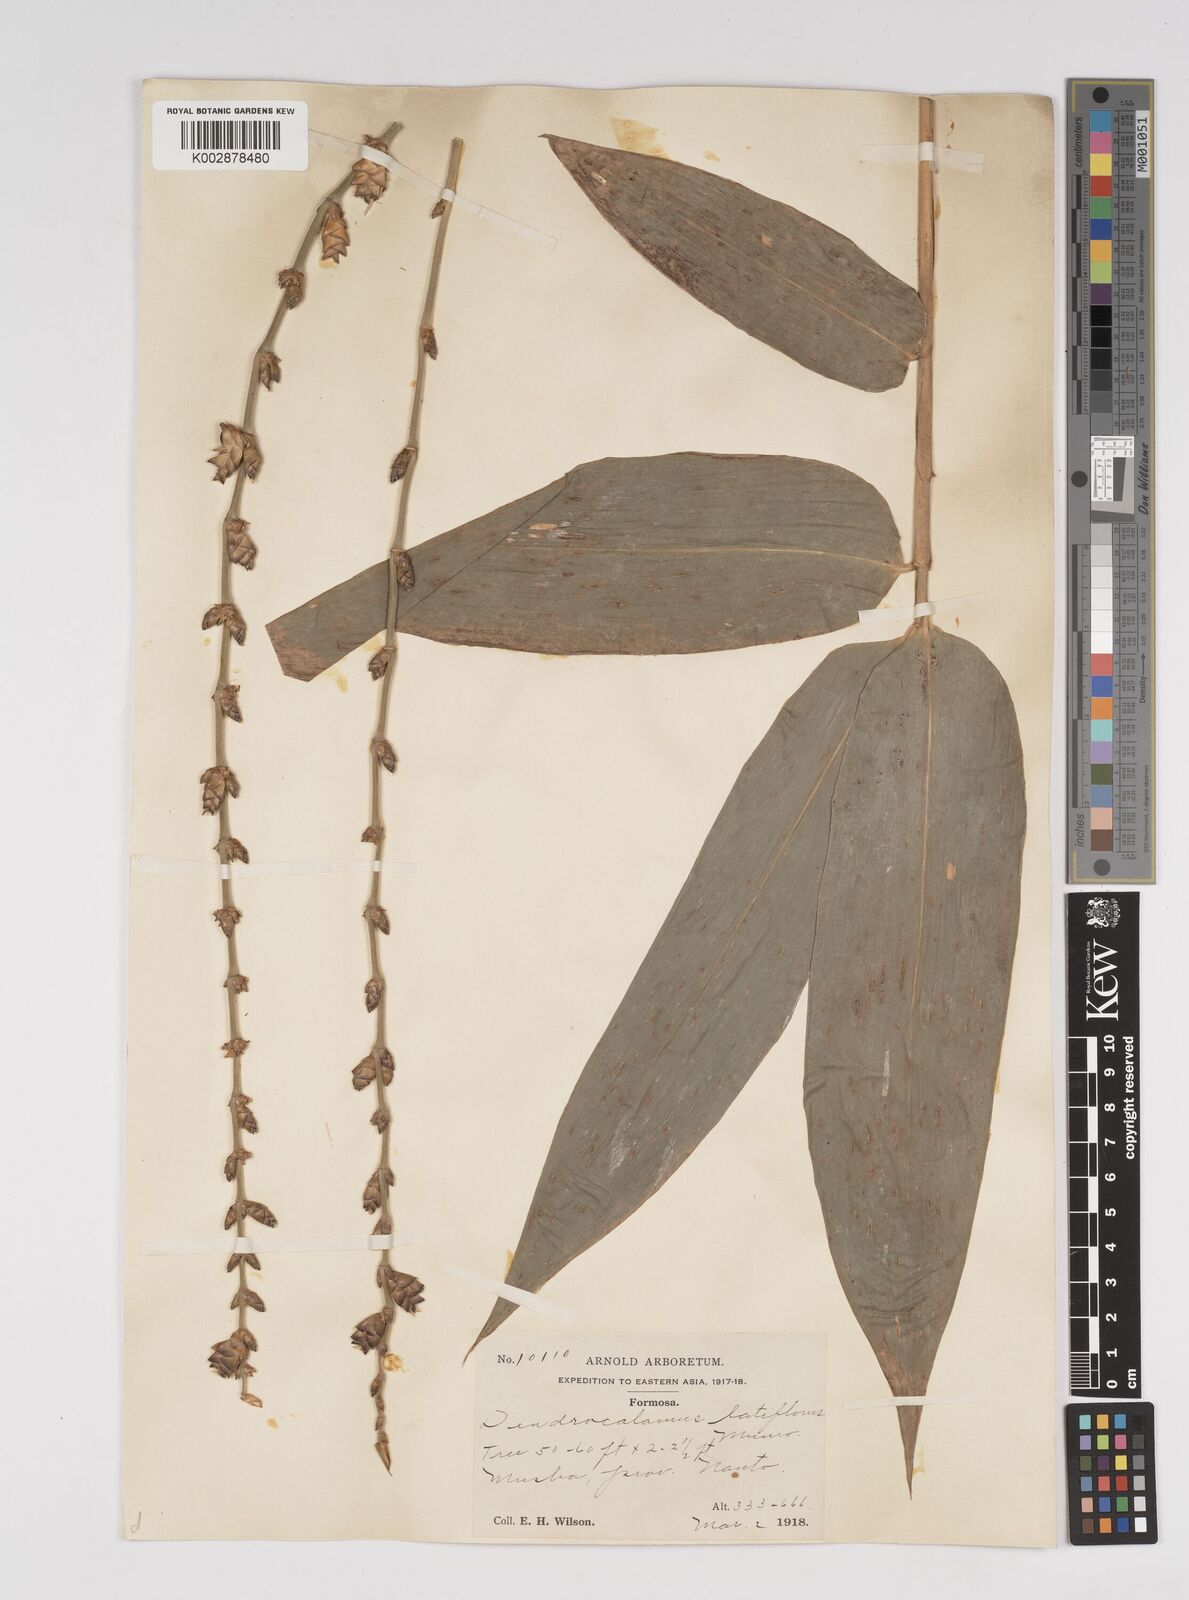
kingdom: Plantae
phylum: Tracheophyta
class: Liliopsida
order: Poales
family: Poaceae
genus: Dendrocalamus
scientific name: Dendrocalamus latiflorus
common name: Giant bamboo
